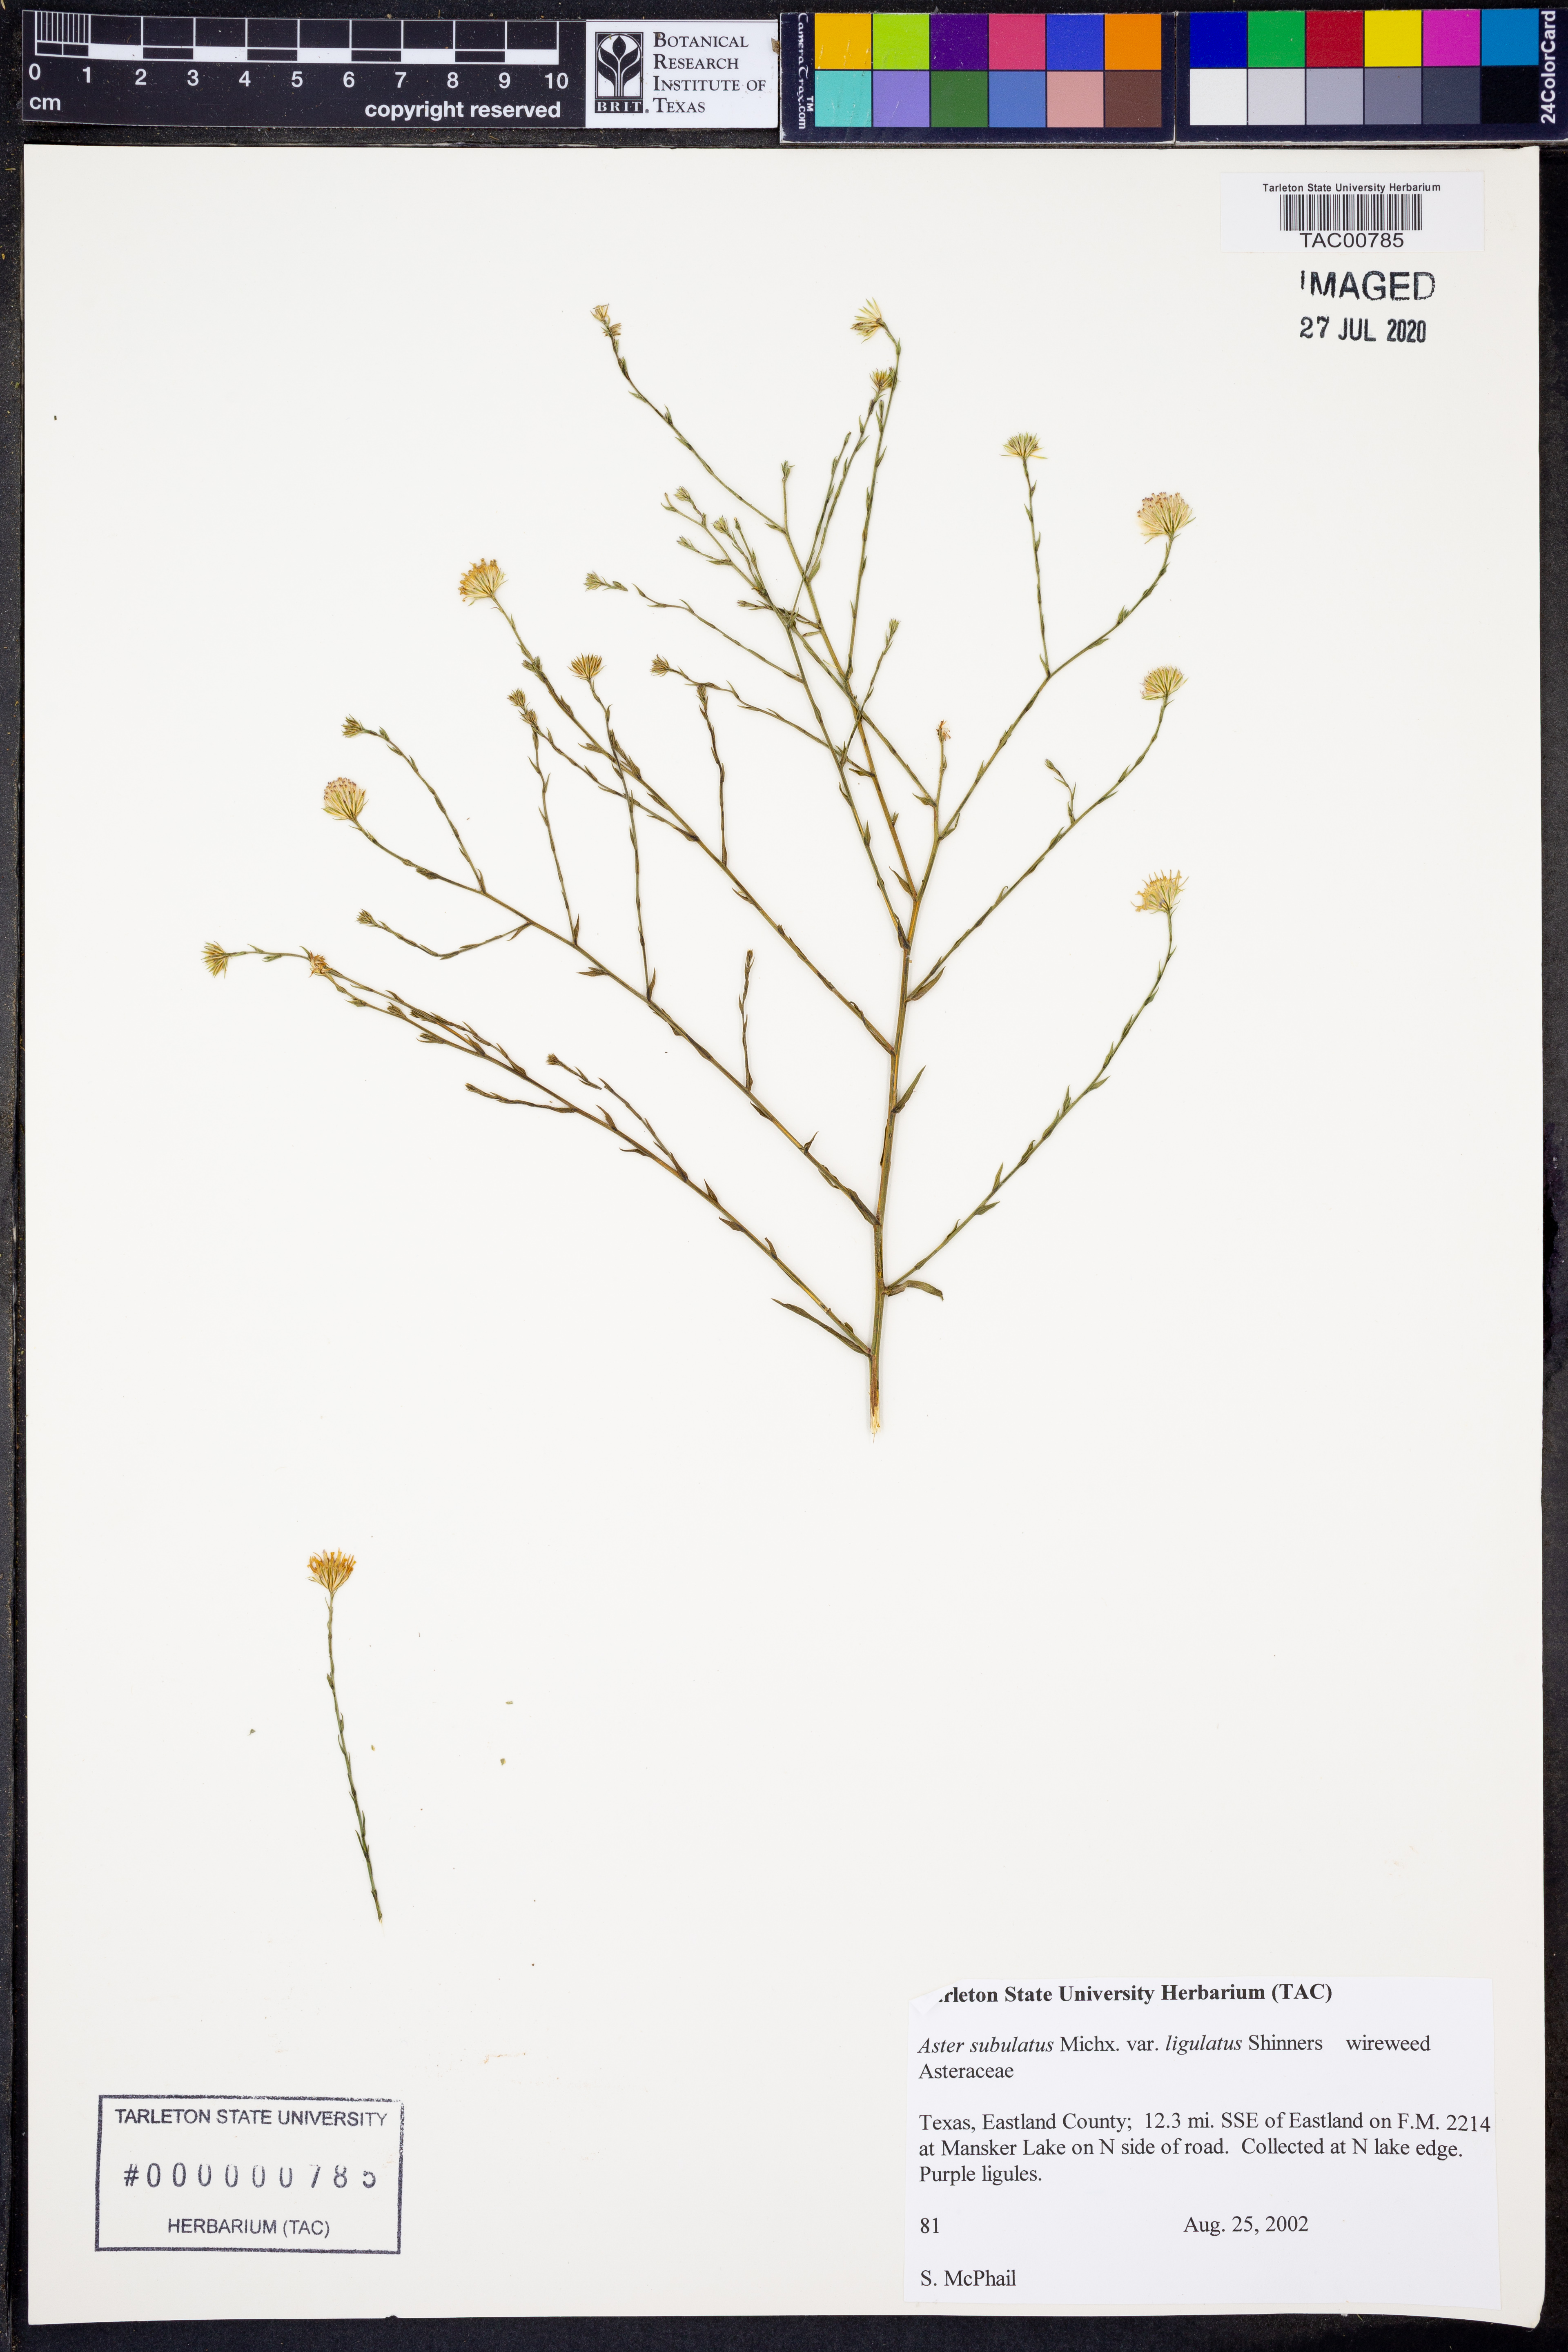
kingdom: Plantae
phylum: Tracheophyta
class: Magnoliopsida
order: Asterales
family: Asteraceae
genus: Symphyotrichum
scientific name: Symphyotrichum divaricatum
